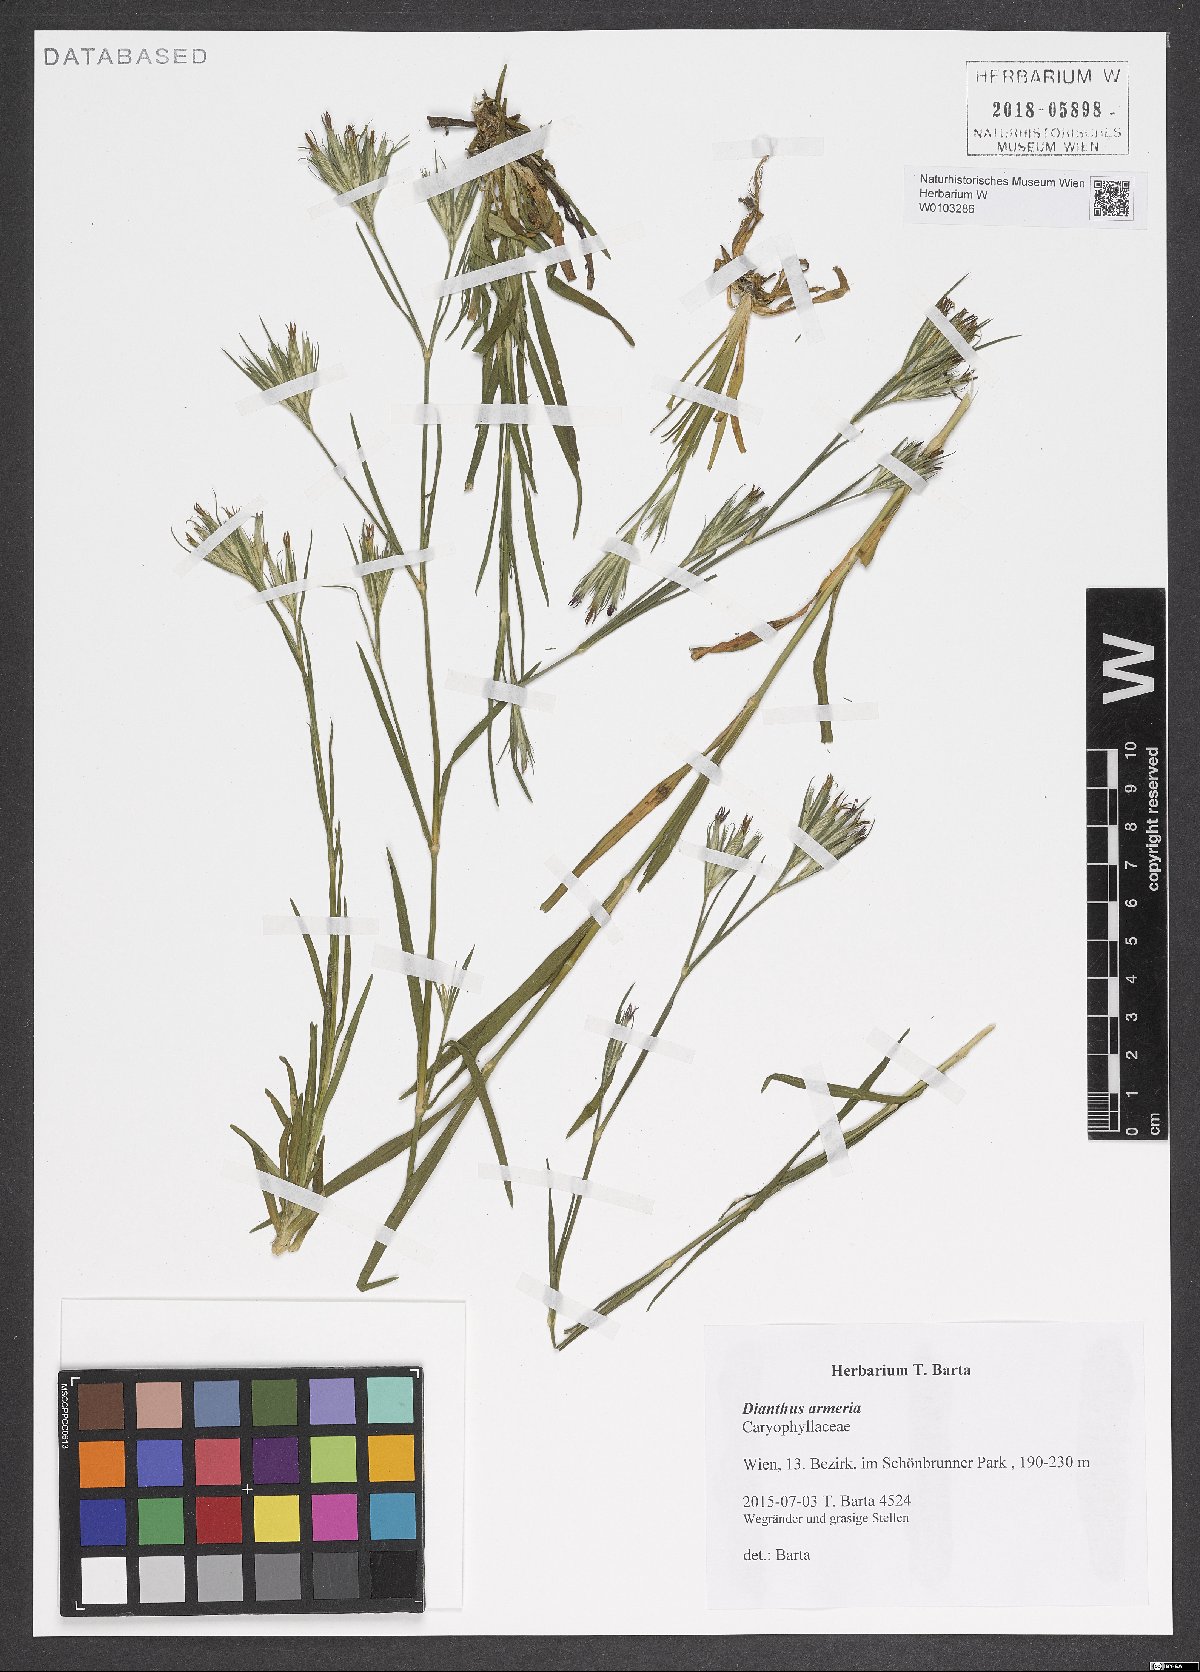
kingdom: Plantae
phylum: Tracheophyta
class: Magnoliopsida
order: Caryophyllales
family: Caryophyllaceae
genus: Dianthus
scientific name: Dianthus armeria
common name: Deptford pink
